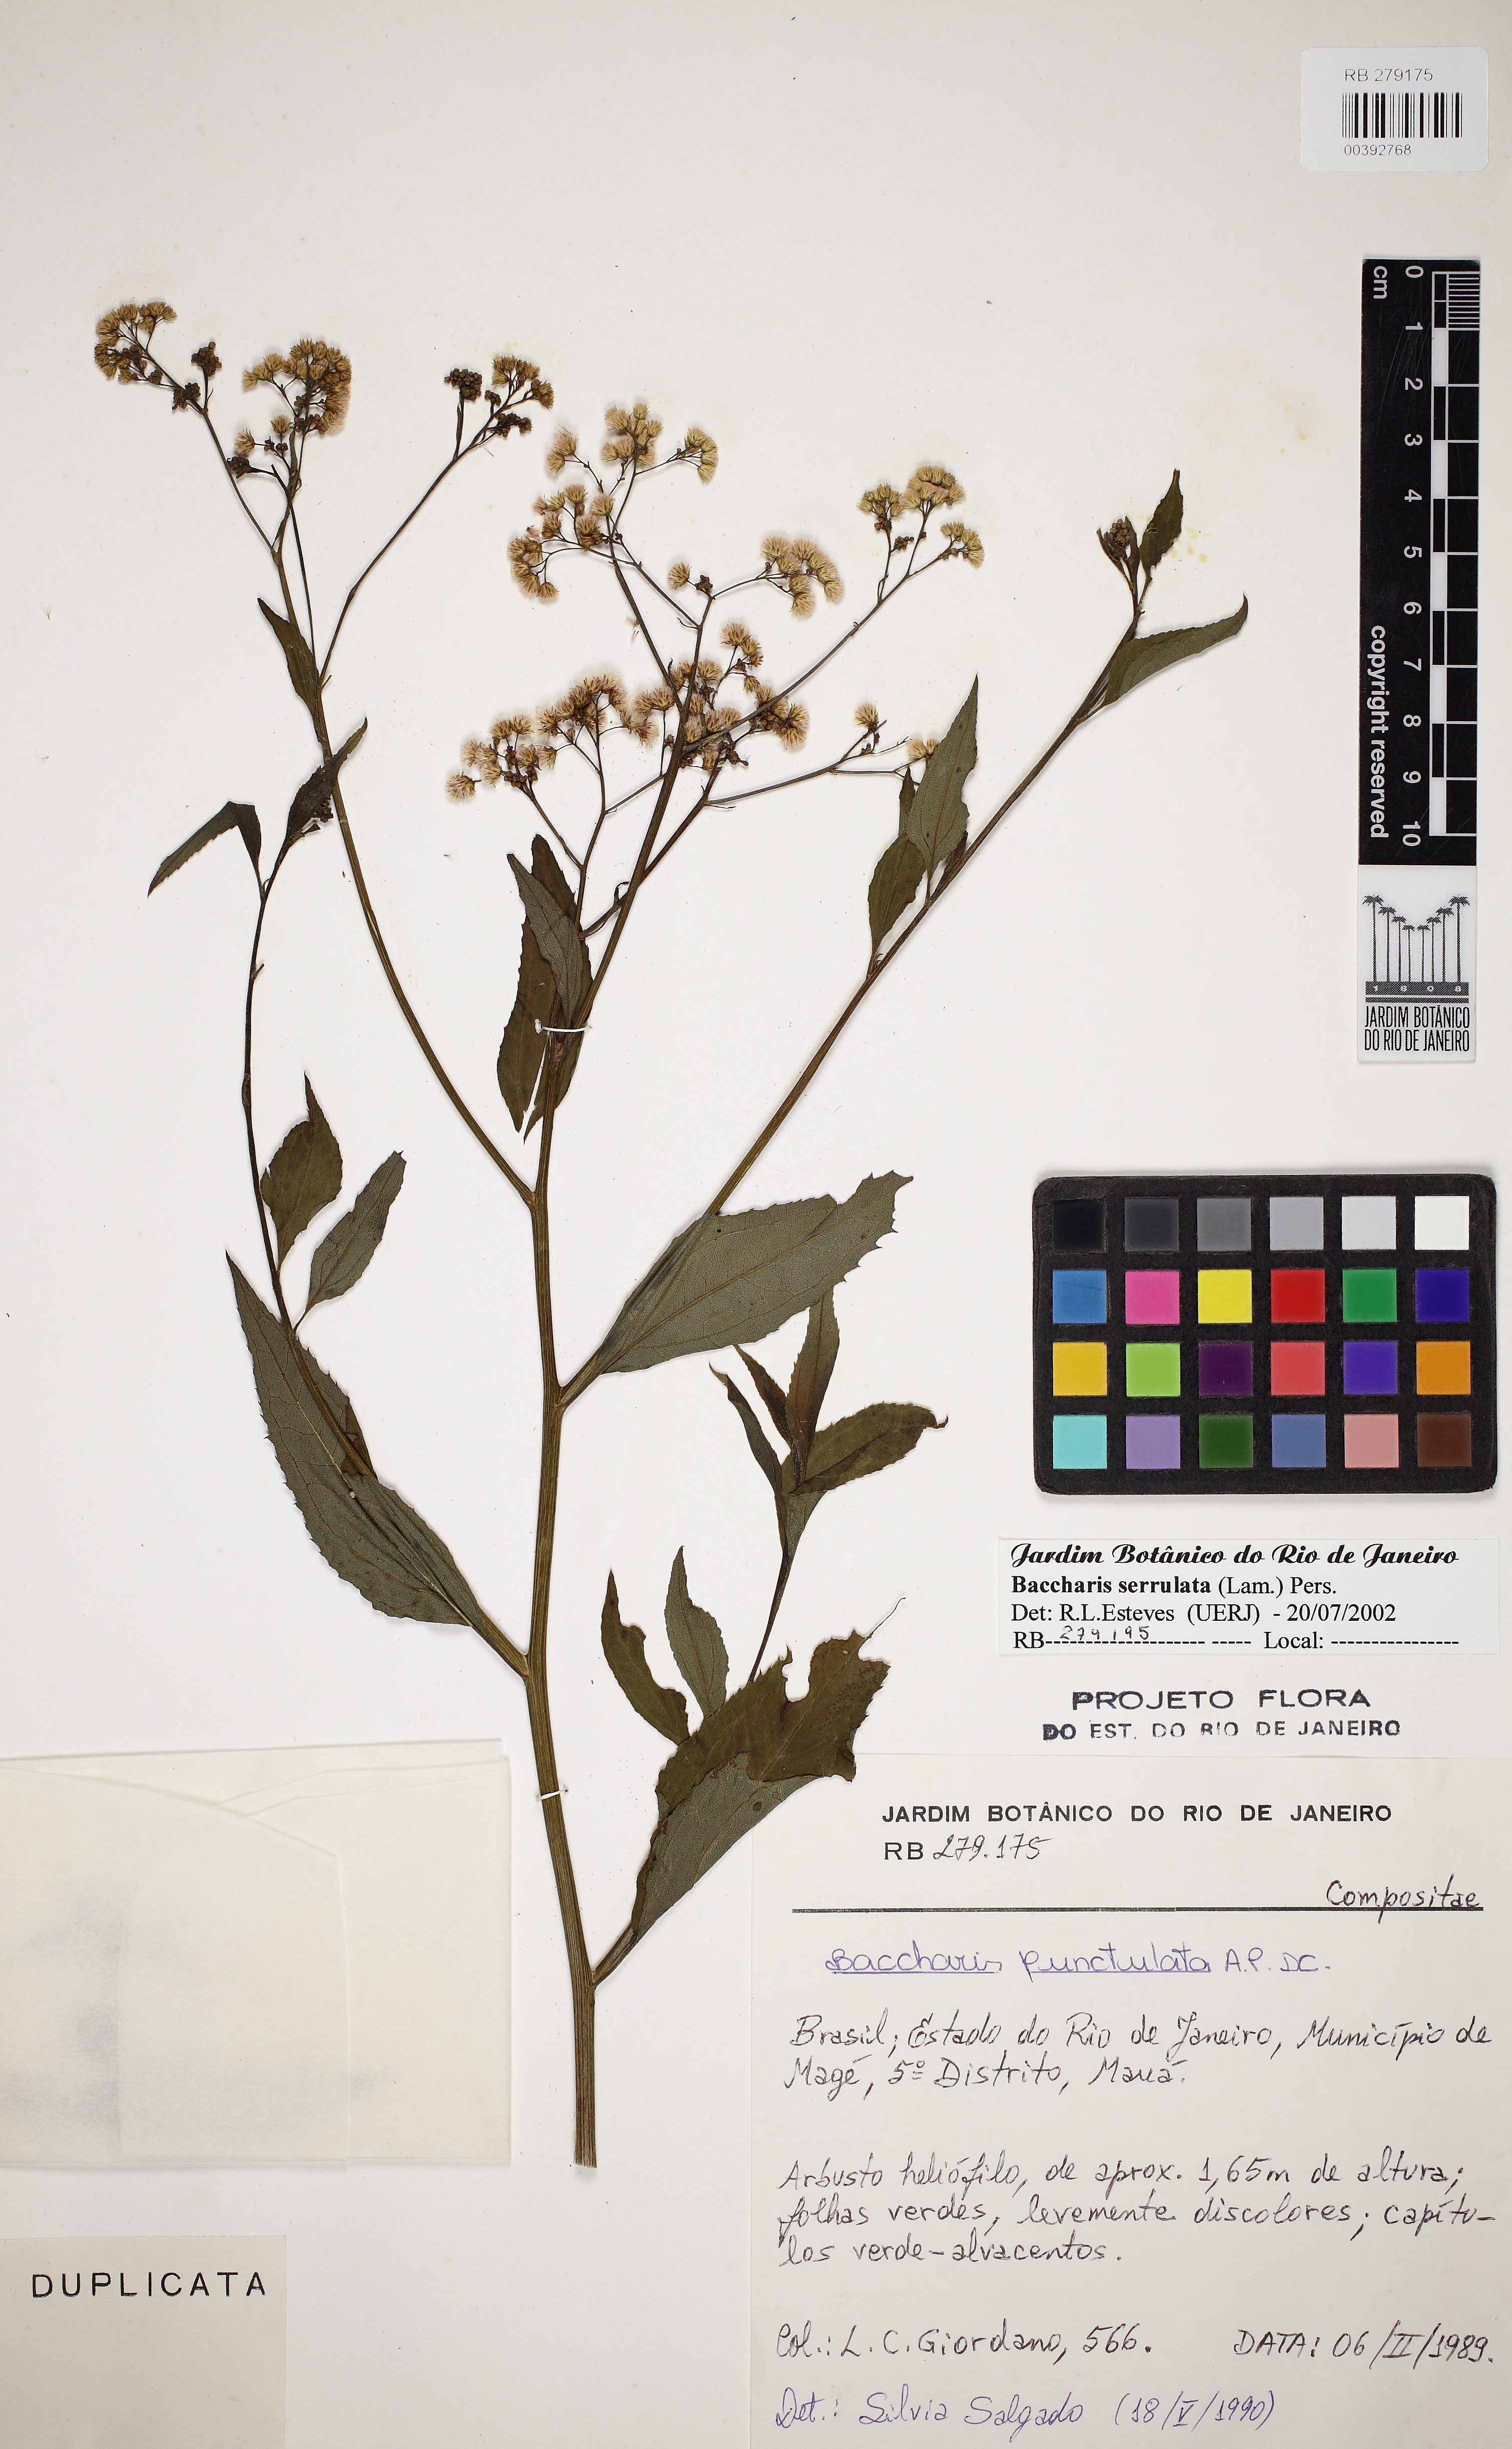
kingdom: Plantae
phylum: Tracheophyta
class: Magnoliopsida
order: Asterales
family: Asteraceae
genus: Baccharis
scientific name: Baccharis serrulata
